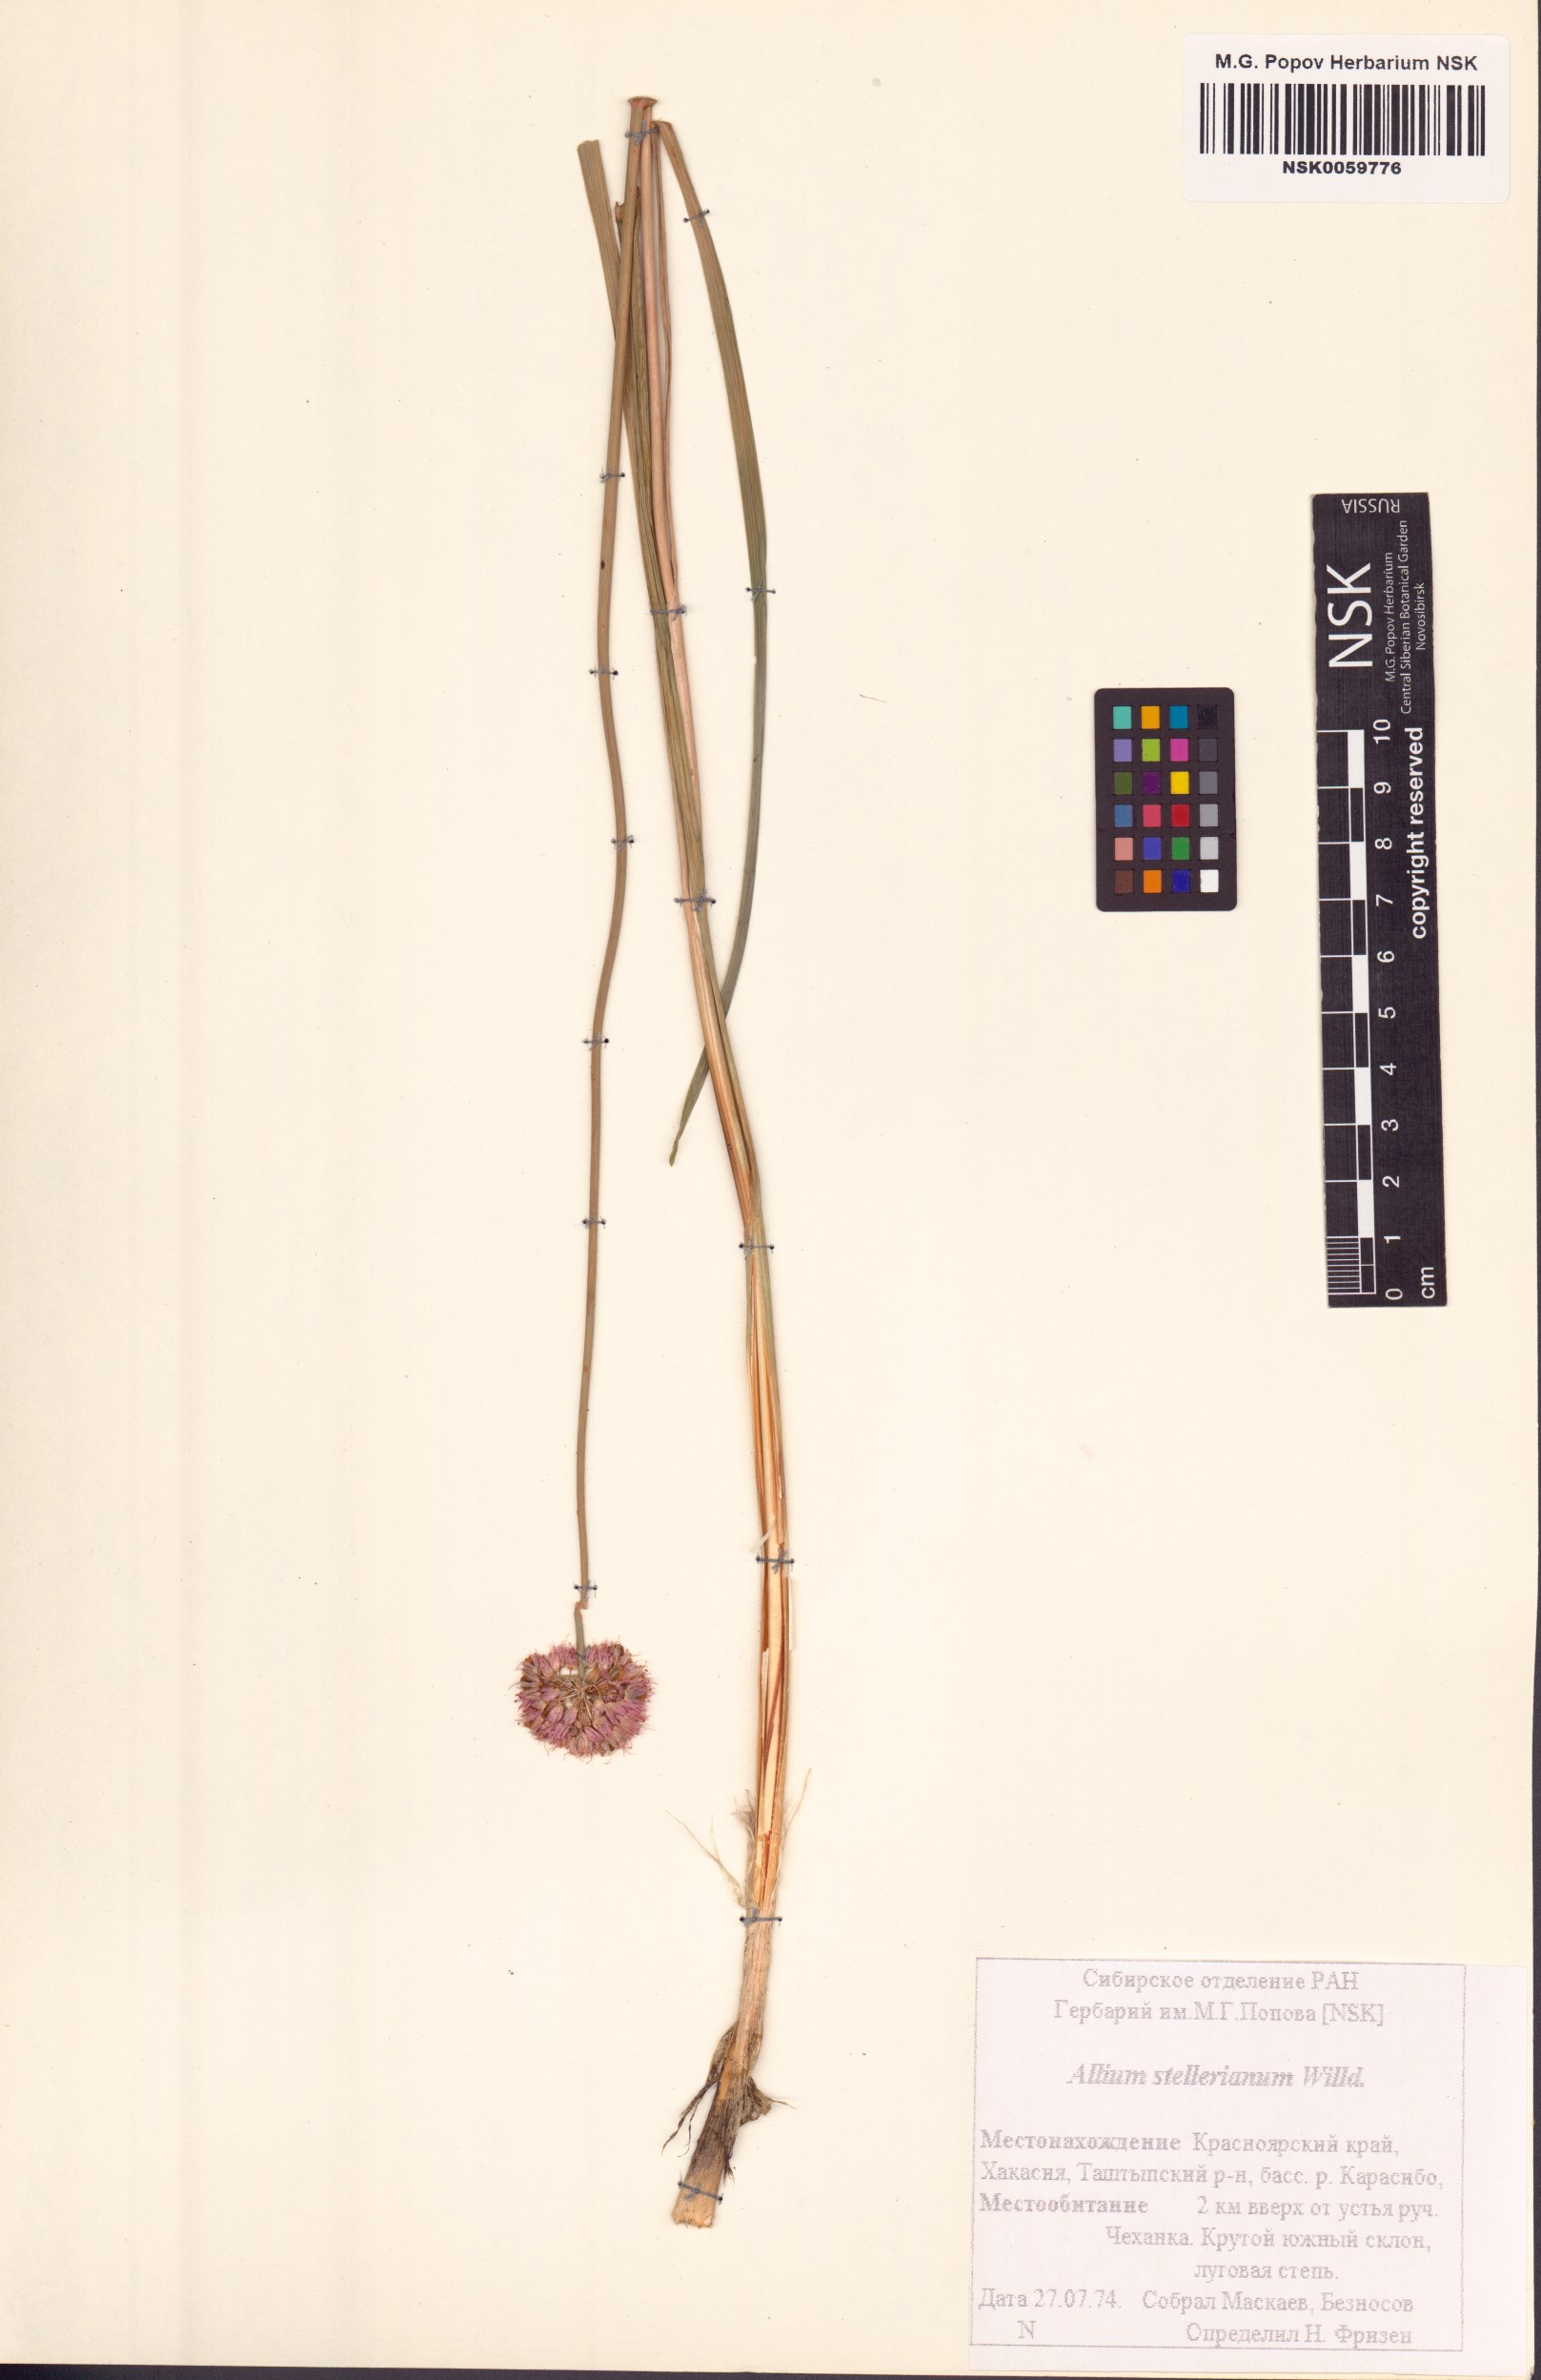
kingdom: Plantae
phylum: Tracheophyta
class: Liliopsida
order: Asparagales
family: Amaryllidaceae
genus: Allium
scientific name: Allium stellerianum
